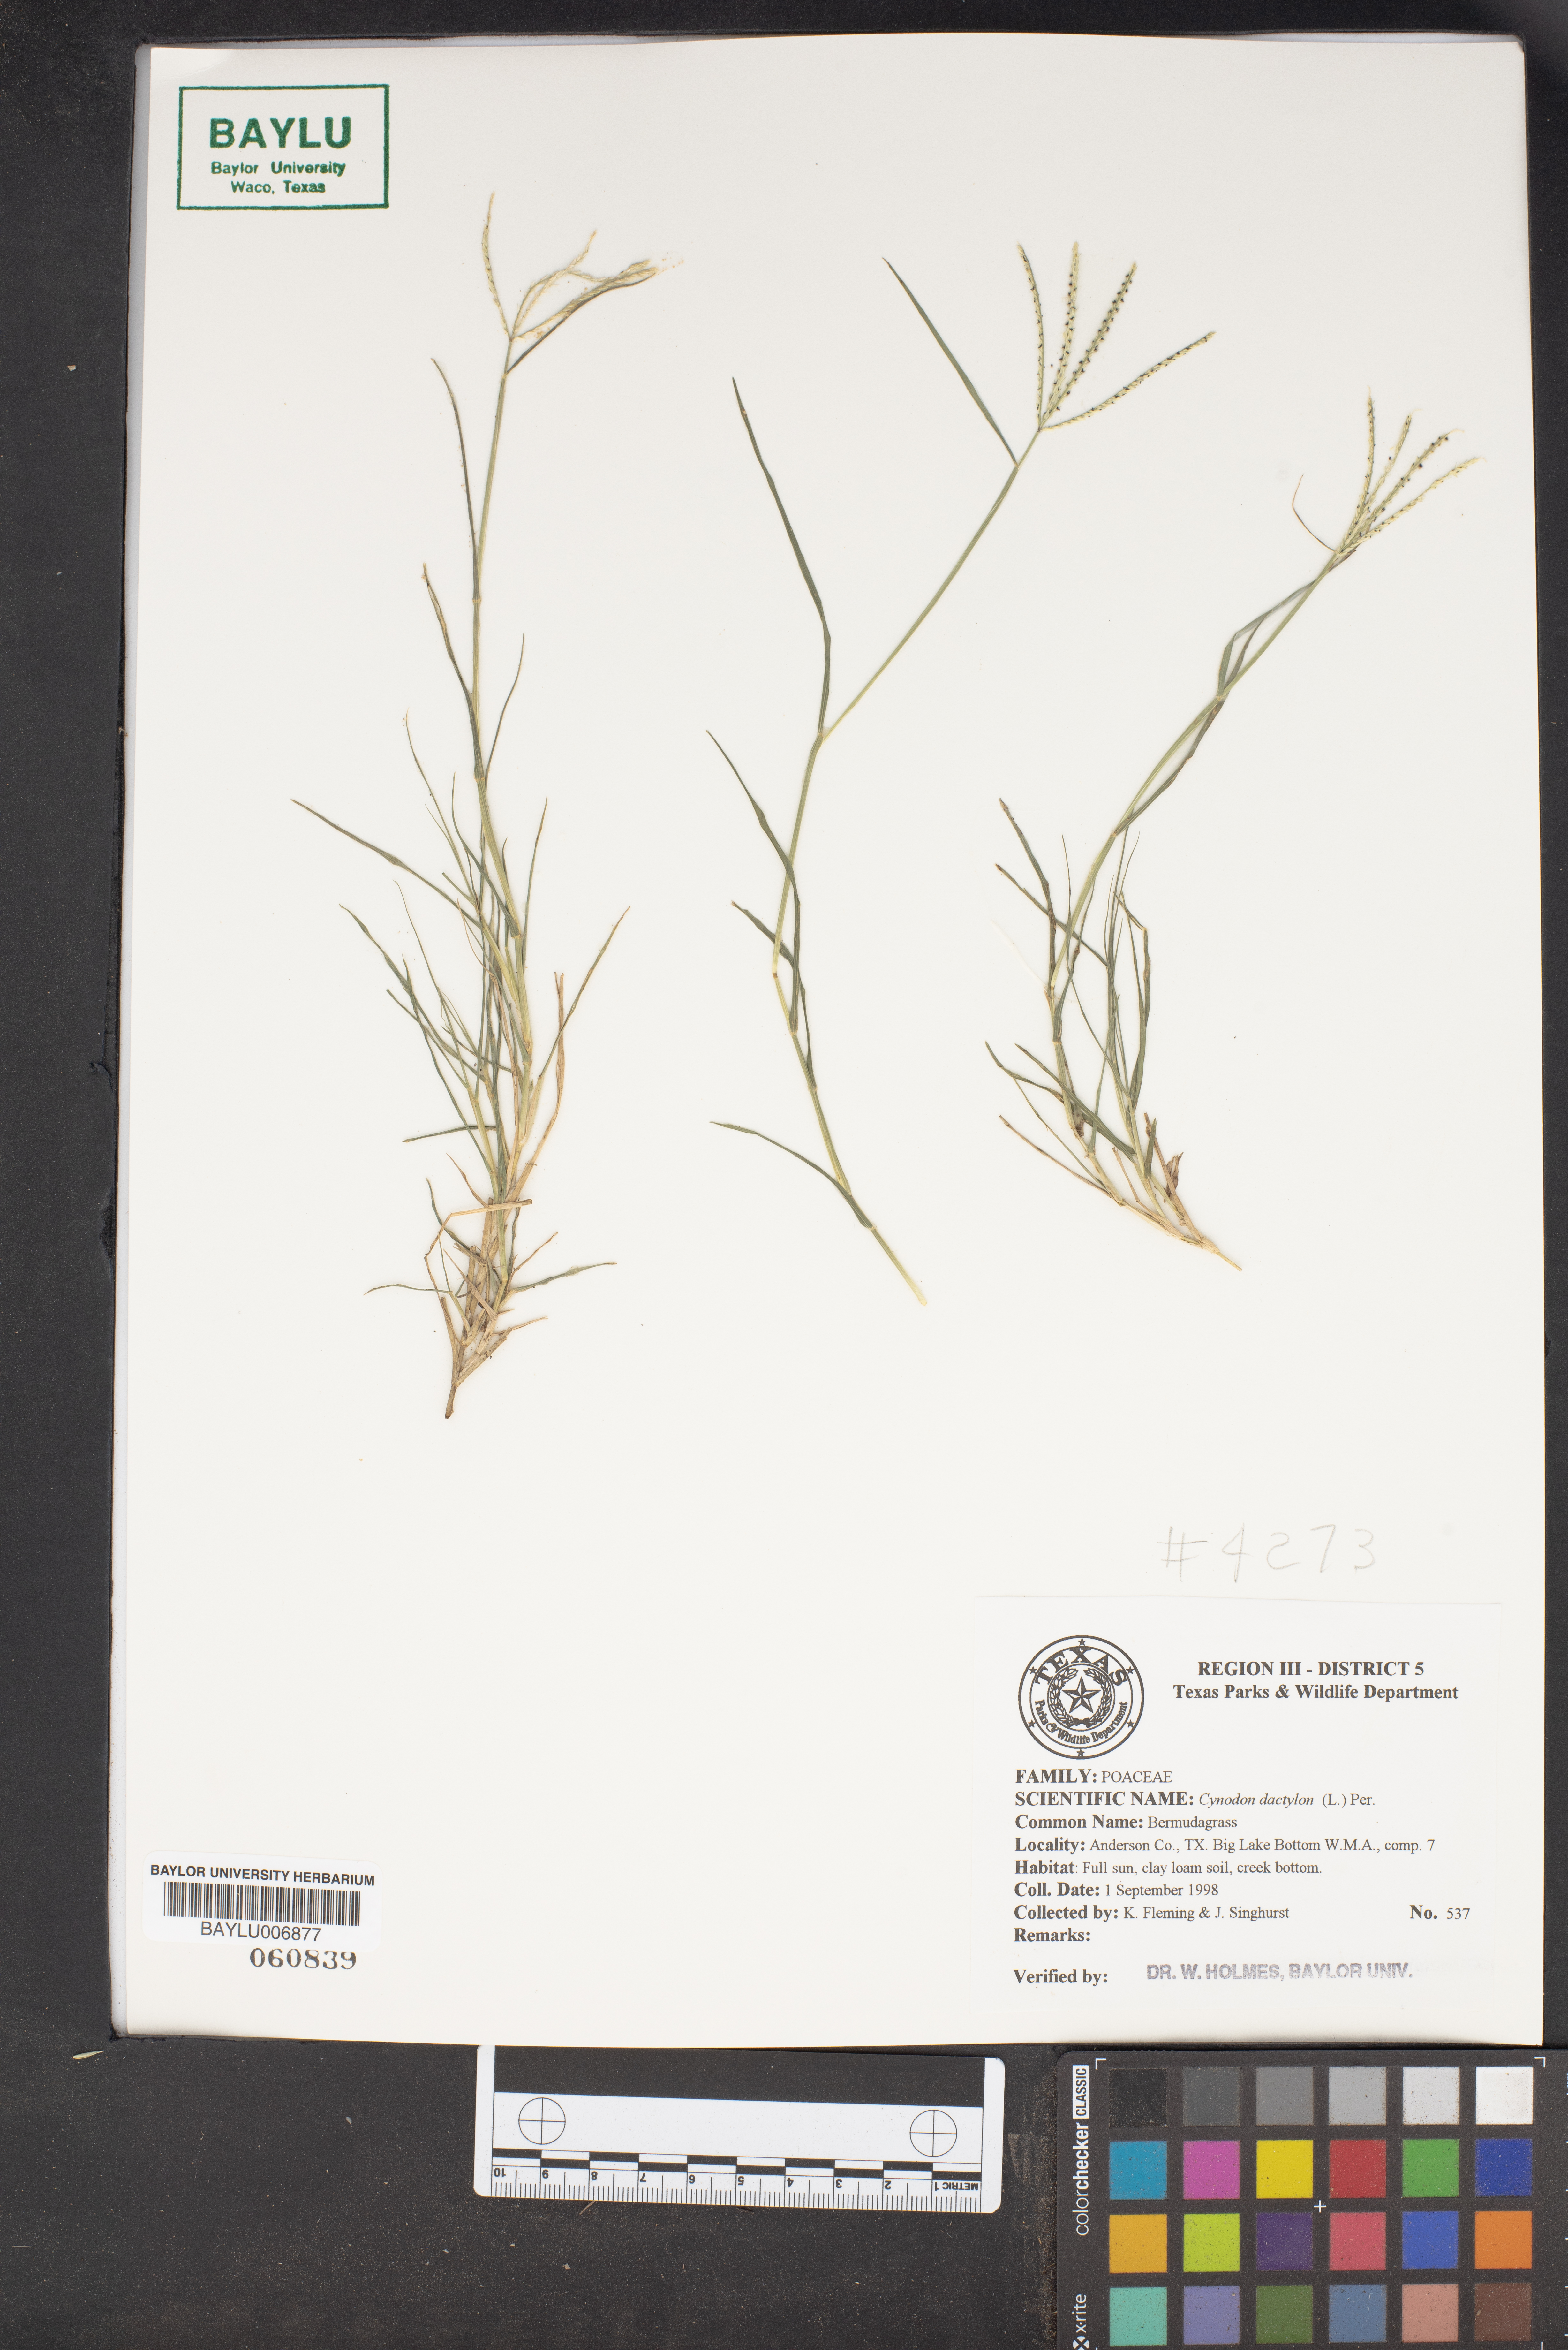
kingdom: Plantae
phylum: Tracheophyta
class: Liliopsida
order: Poales
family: Poaceae
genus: Cynodon
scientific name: Cynodon dactylon
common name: Bermuda grass
